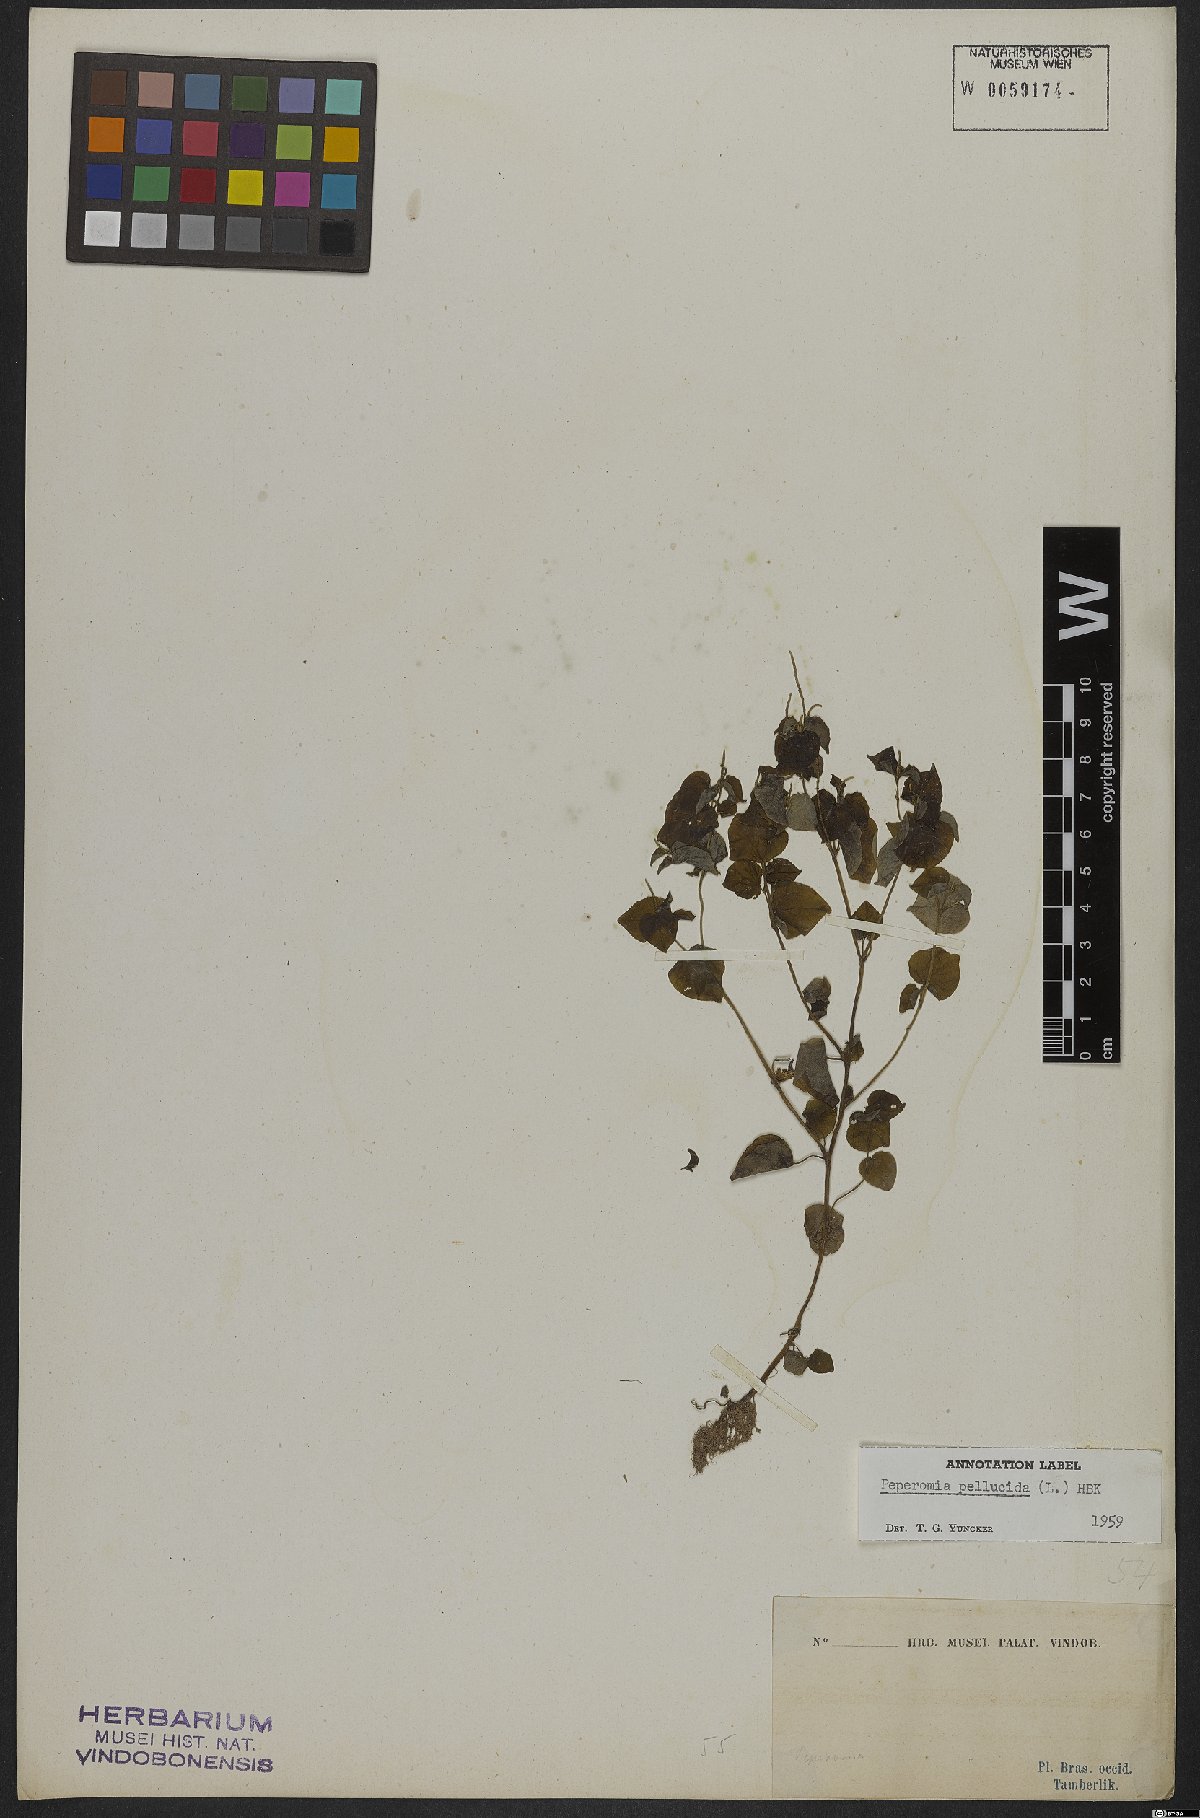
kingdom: Plantae
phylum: Tracheophyta
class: Magnoliopsida
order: Piperales
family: Piperaceae
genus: Peperomia
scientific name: Peperomia pellucida
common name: Man to man
